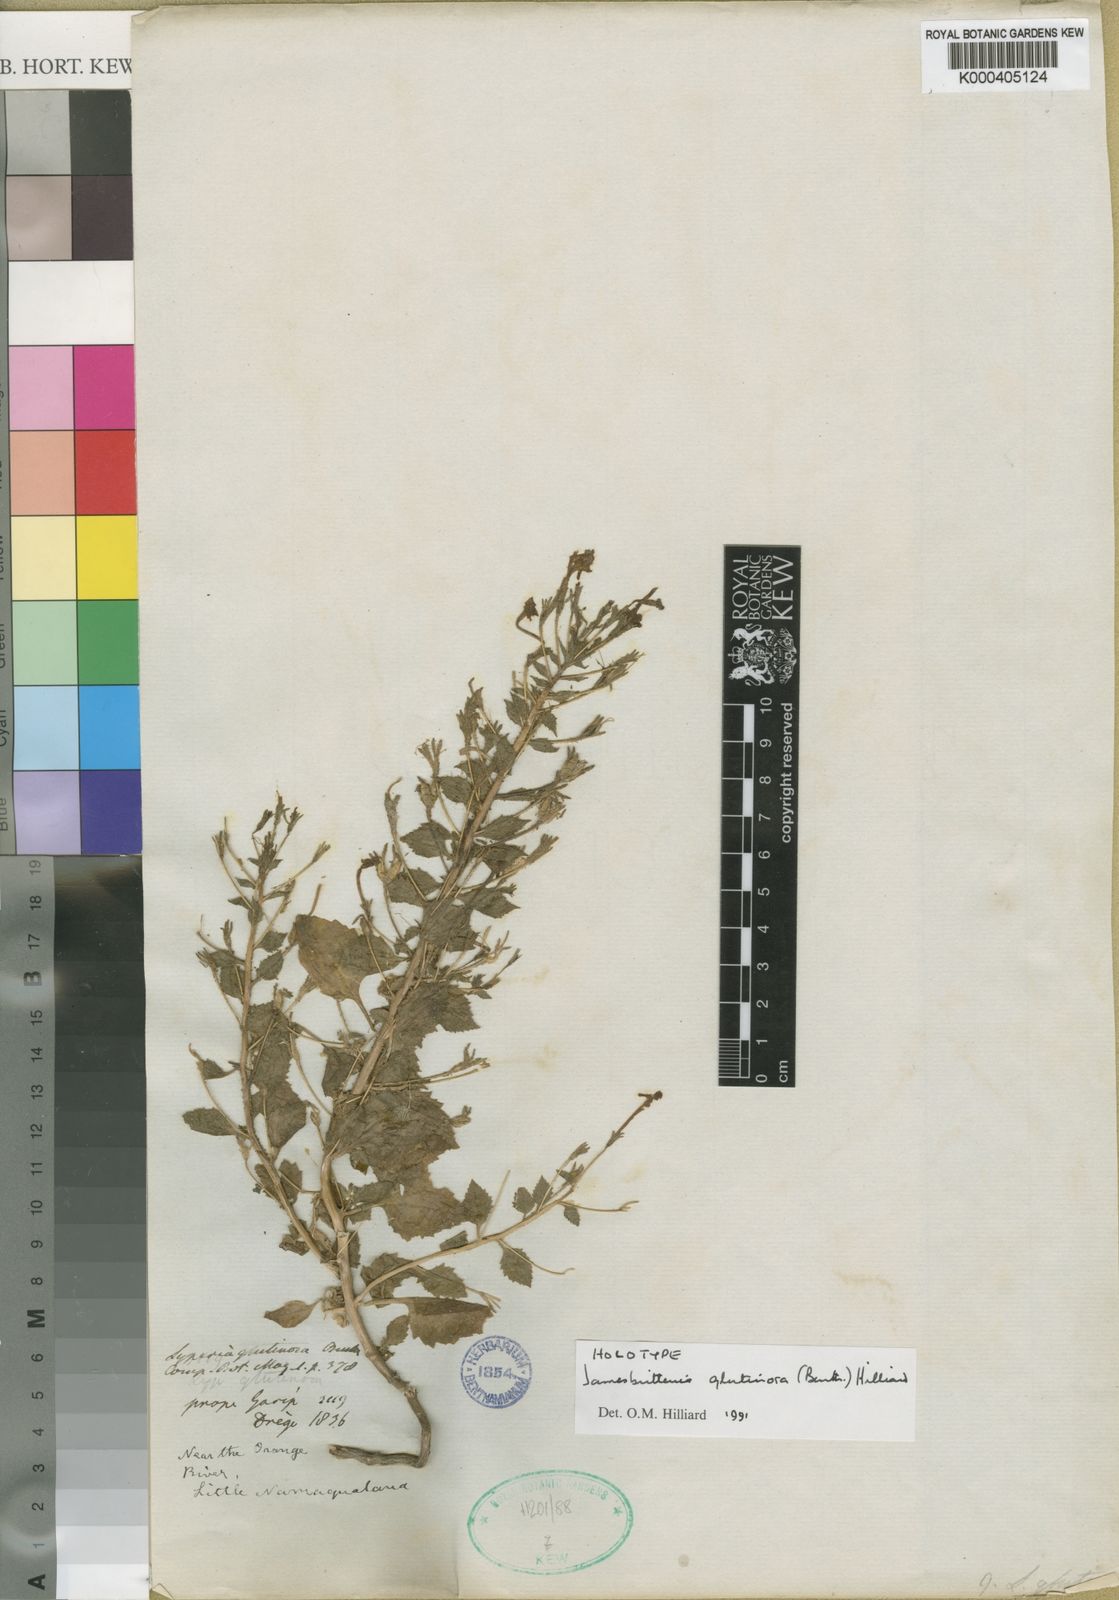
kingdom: Plantae
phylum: Tracheophyta
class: Magnoliopsida
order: Lamiales
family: Scrophulariaceae
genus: Jamesbrittenia
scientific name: Jamesbrittenia glutinosa
